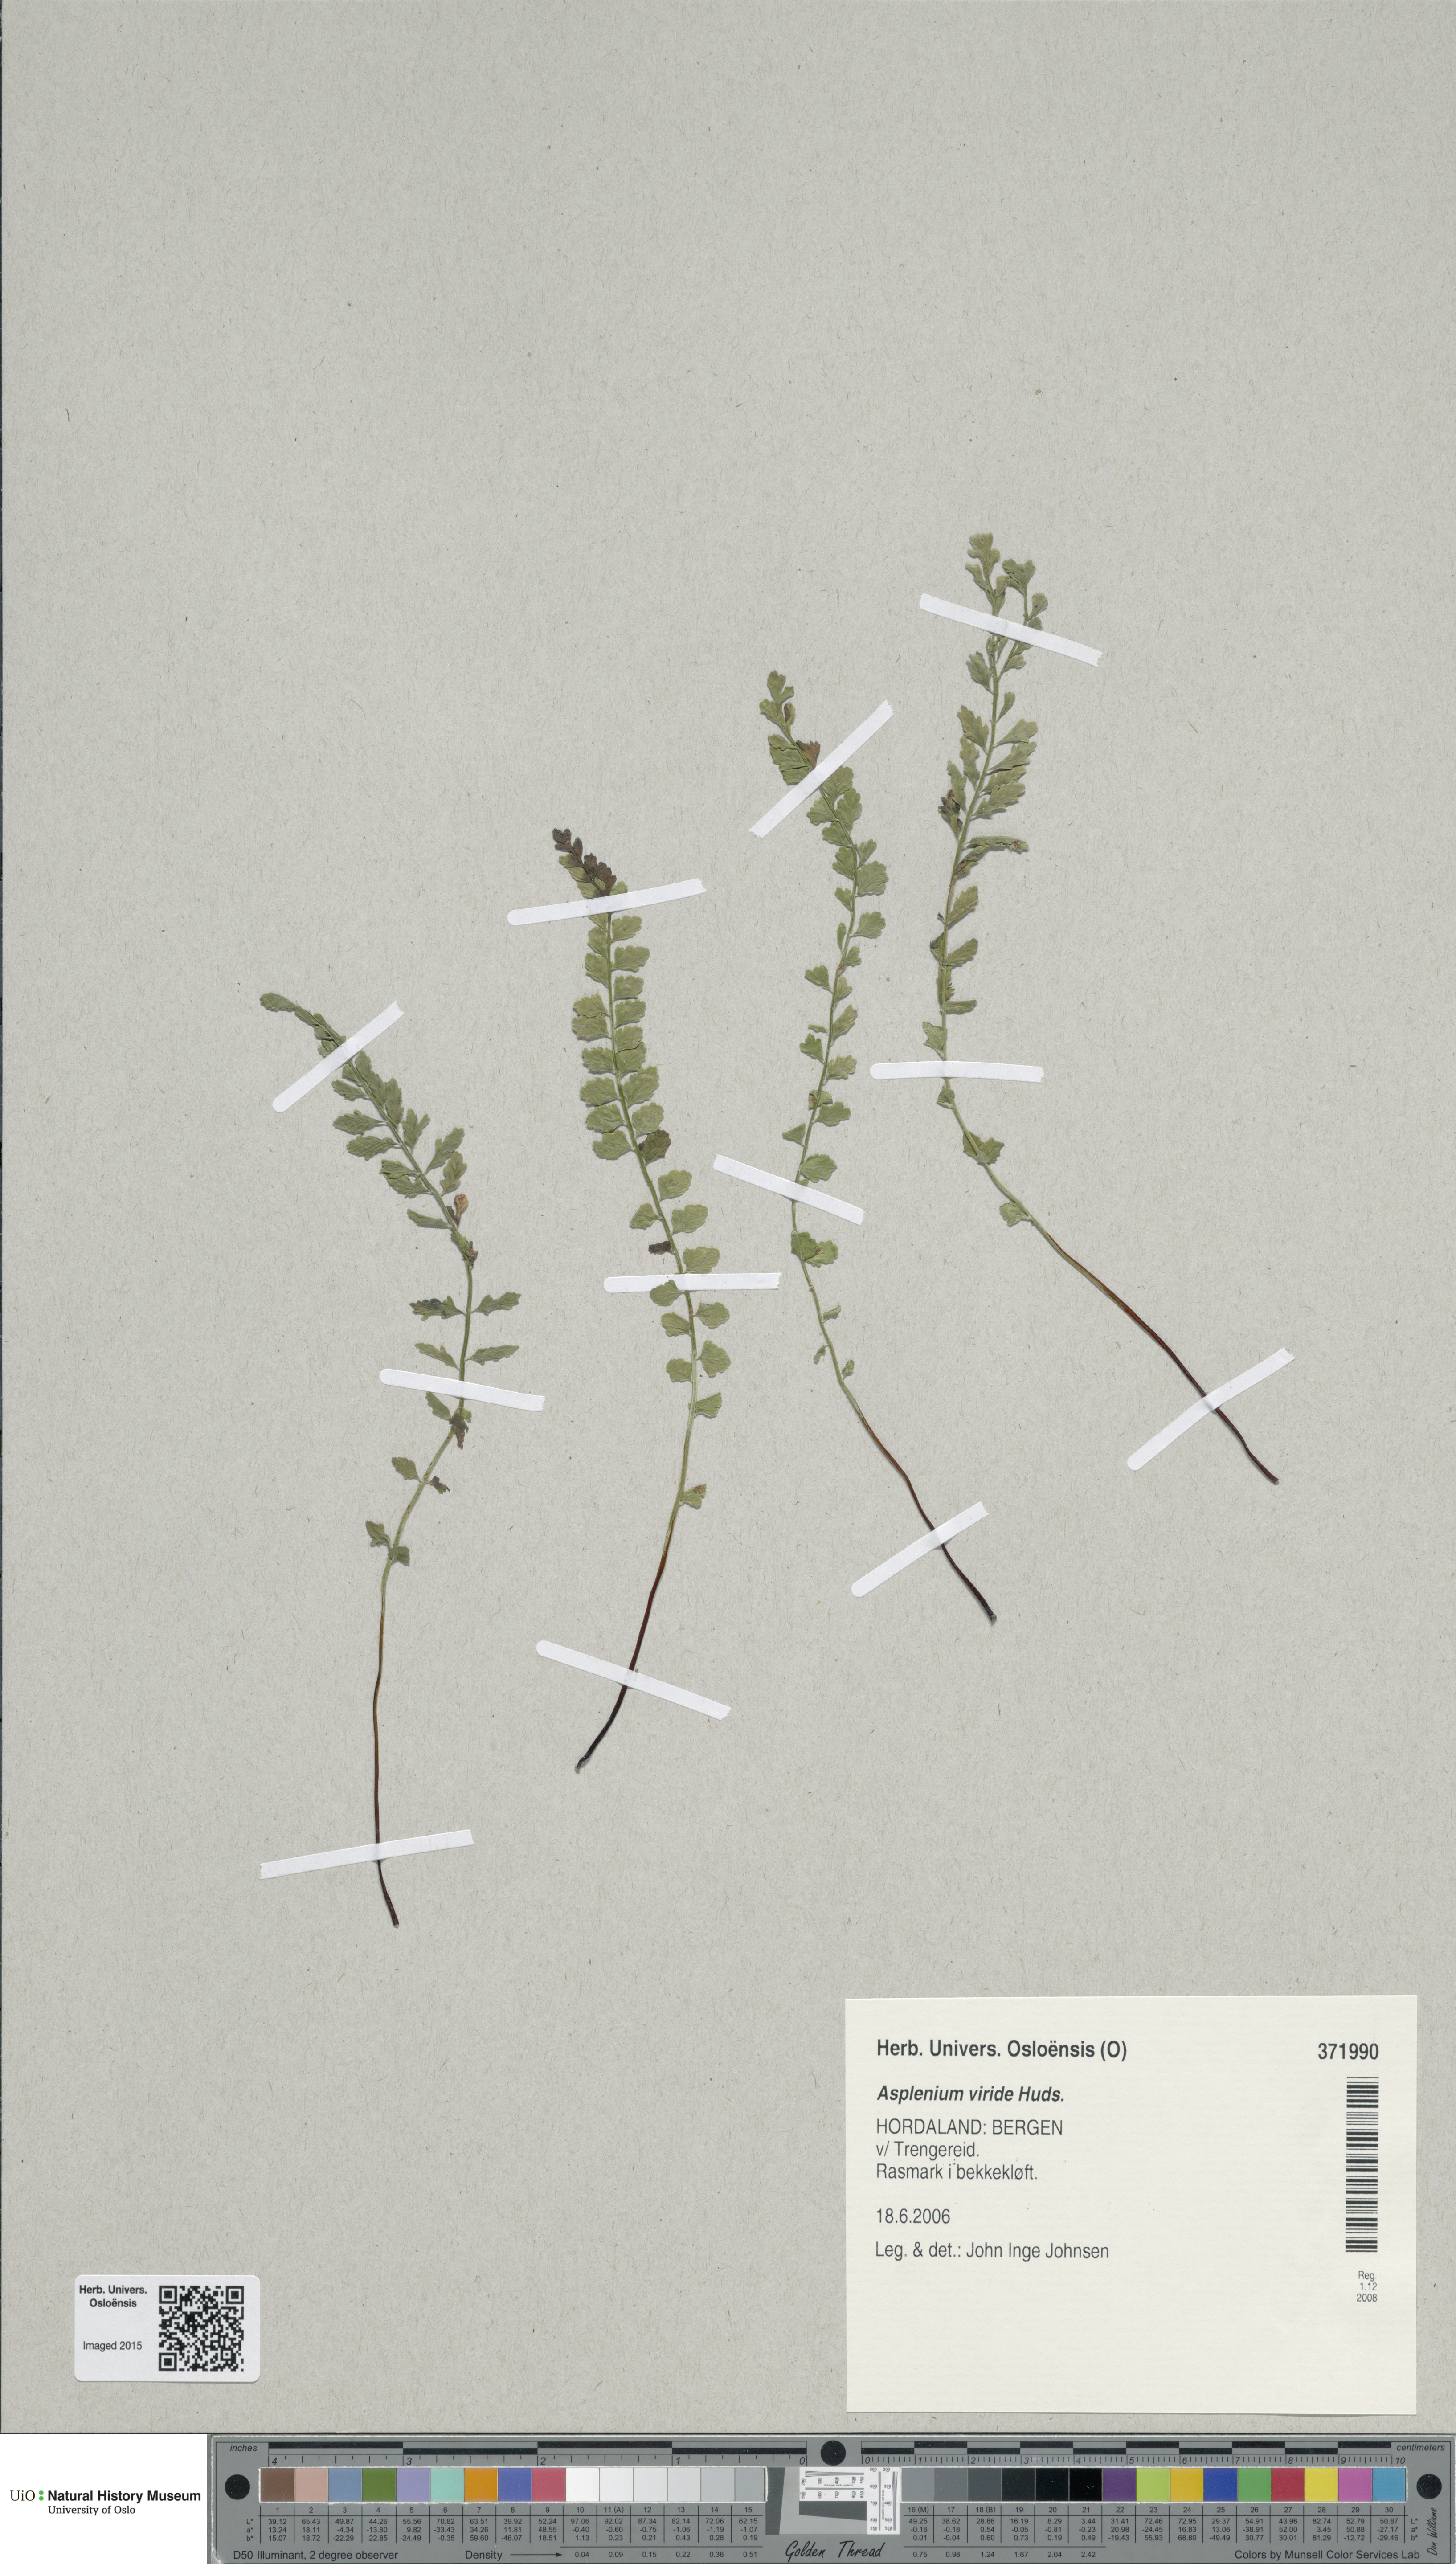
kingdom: Plantae
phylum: Tracheophyta
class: Polypodiopsida
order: Polypodiales
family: Aspleniaceae
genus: Asplenium
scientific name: Asplenium viride
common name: Green spleenwort
